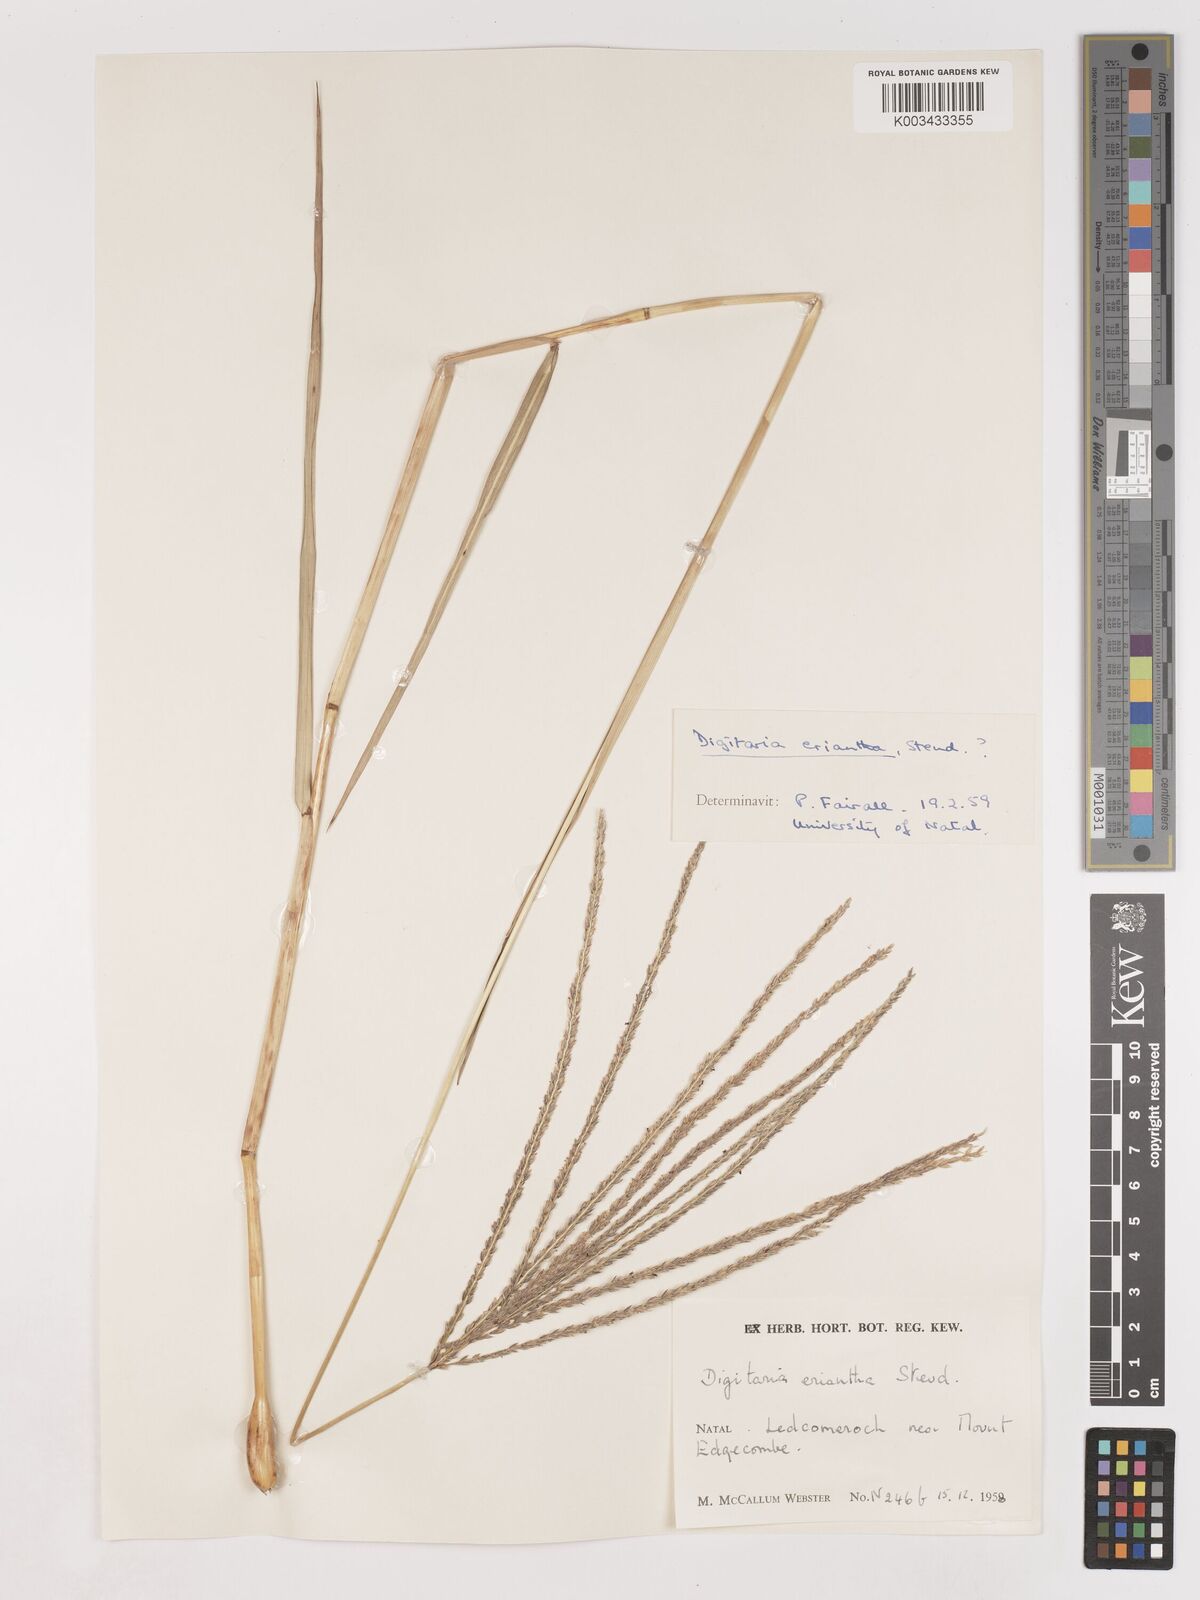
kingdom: Plantae
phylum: Tracheophyta
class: Liliopsida
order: Poales
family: Poaceae
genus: Digitaria
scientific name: Digitaria eriantha
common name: Digitgrass
